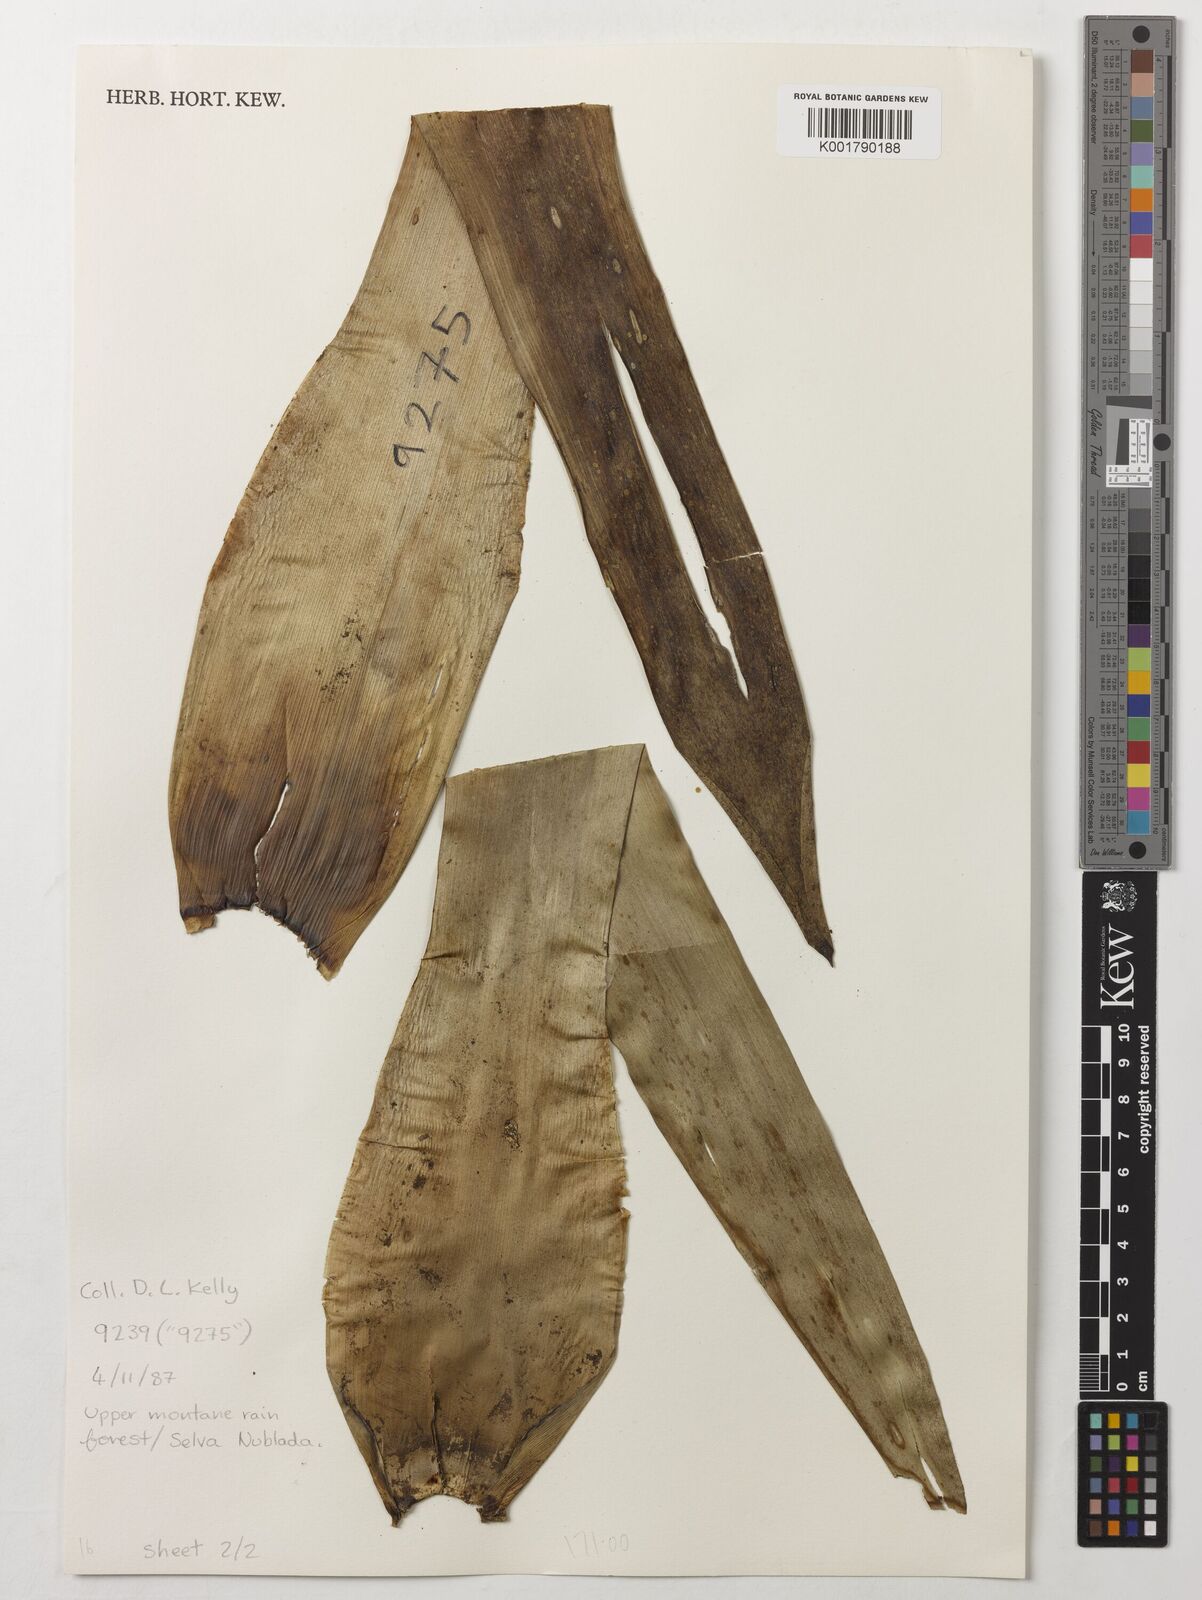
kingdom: Plantae
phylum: Tracheophyta
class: Liliopsida
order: Poales
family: Bromeliaceae
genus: Cipuropsis
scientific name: Cipuropsis capituligera
